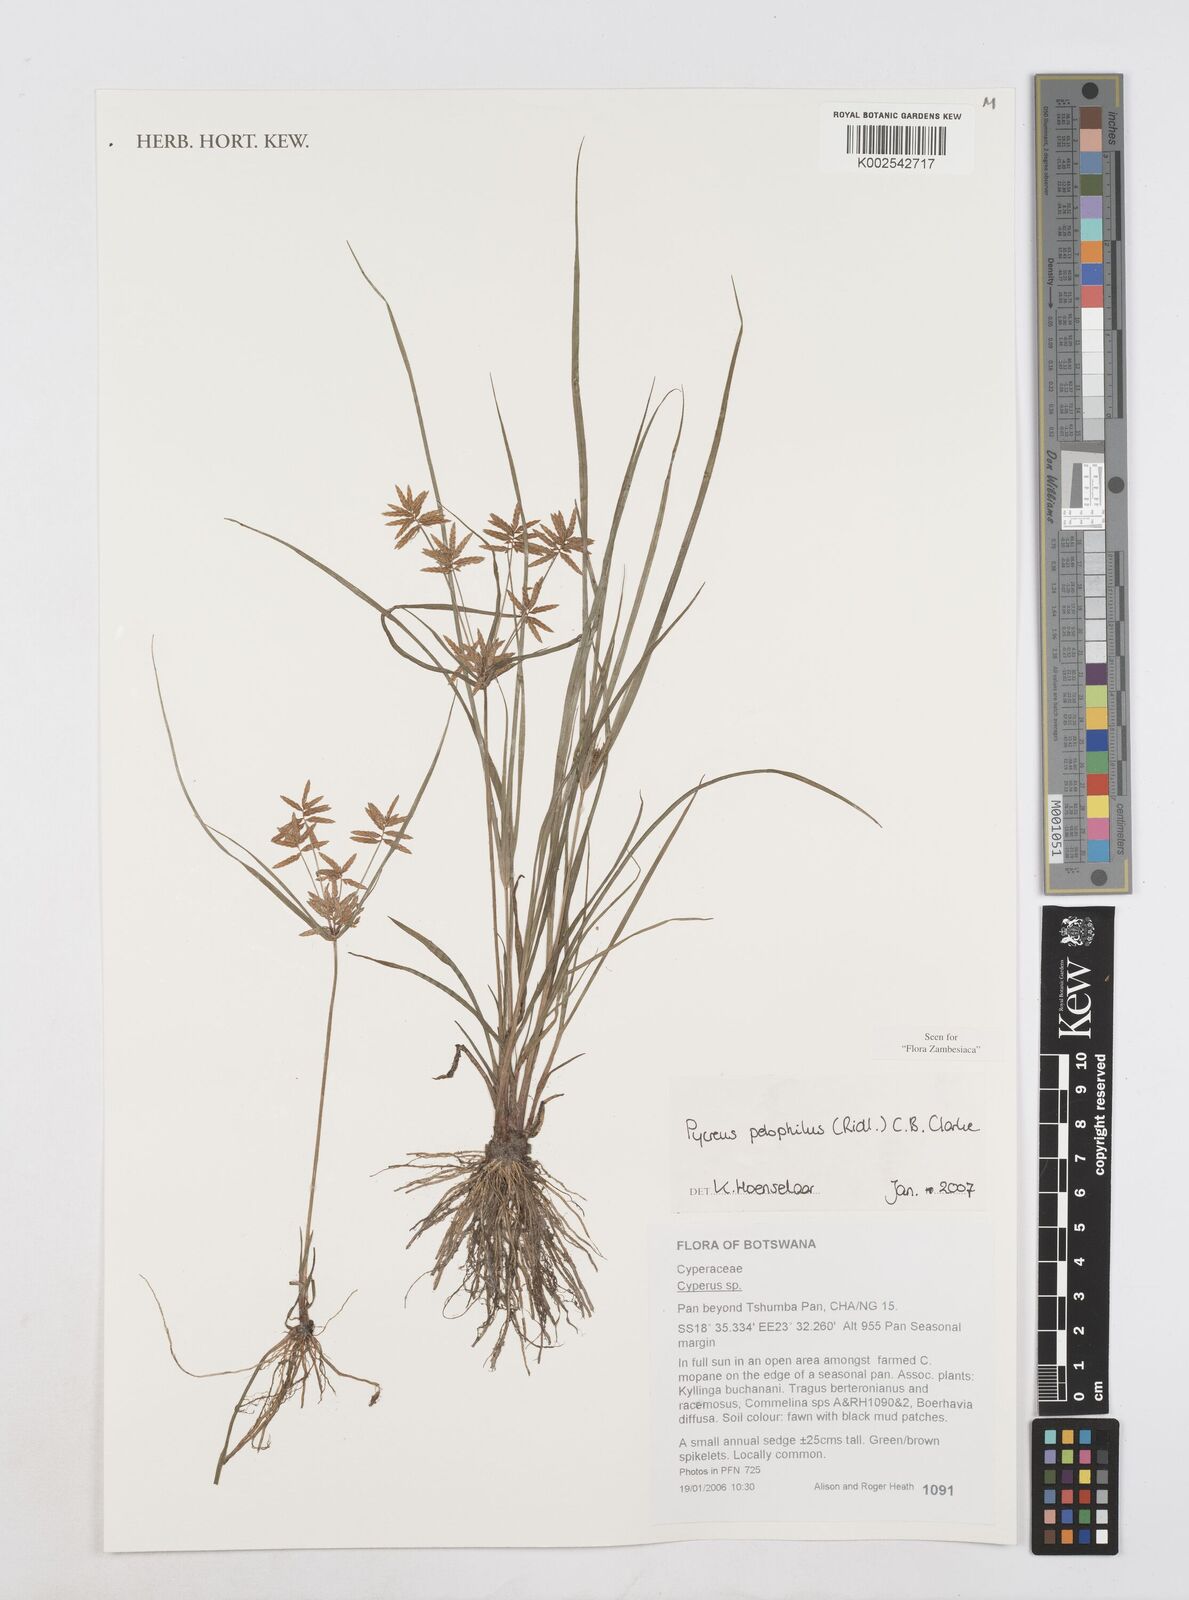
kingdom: Plantae
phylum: Tracheophyta
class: Liliopsida
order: Poales
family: Cyperaceae
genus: Cyperus
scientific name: Cyperus pelophilus
